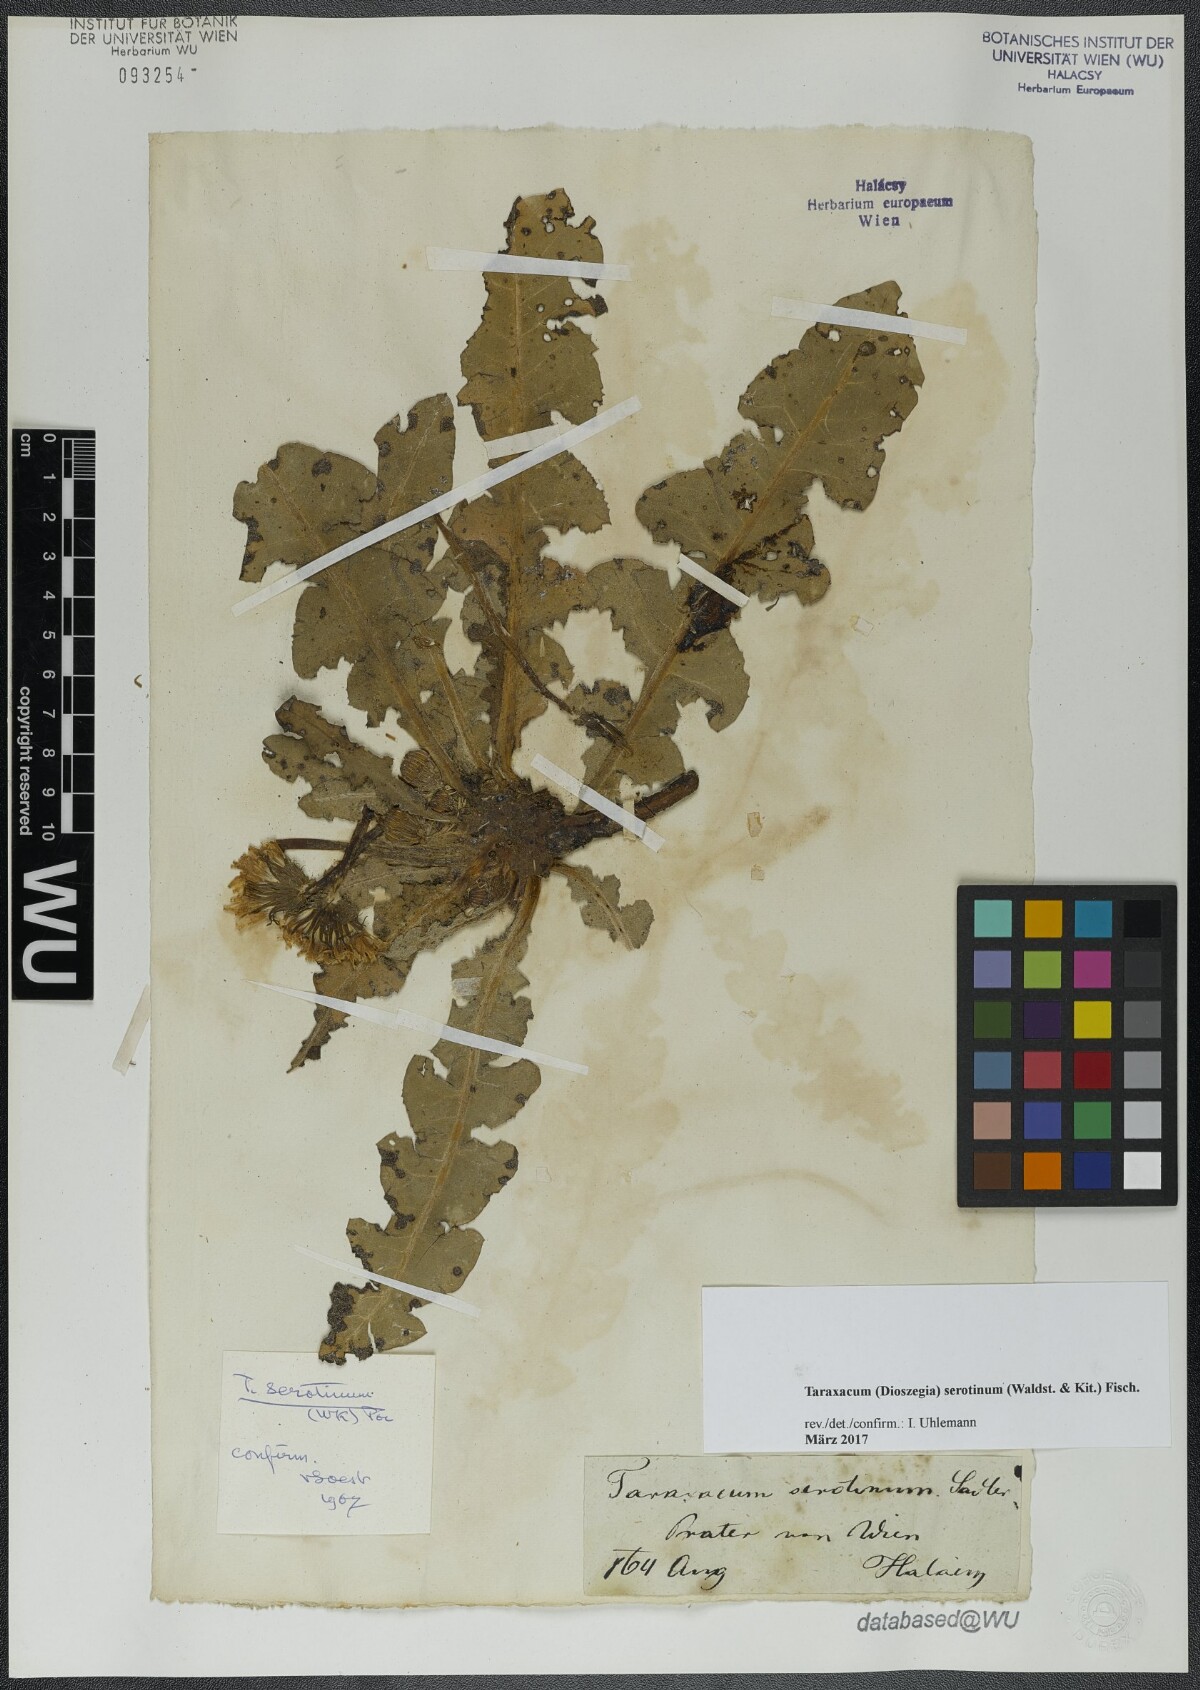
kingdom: Plantae
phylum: Tracheophyta
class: Magnoliopsida
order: Asterales
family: Asteraceae
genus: Taraxacum
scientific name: Taraxacum serotinum
